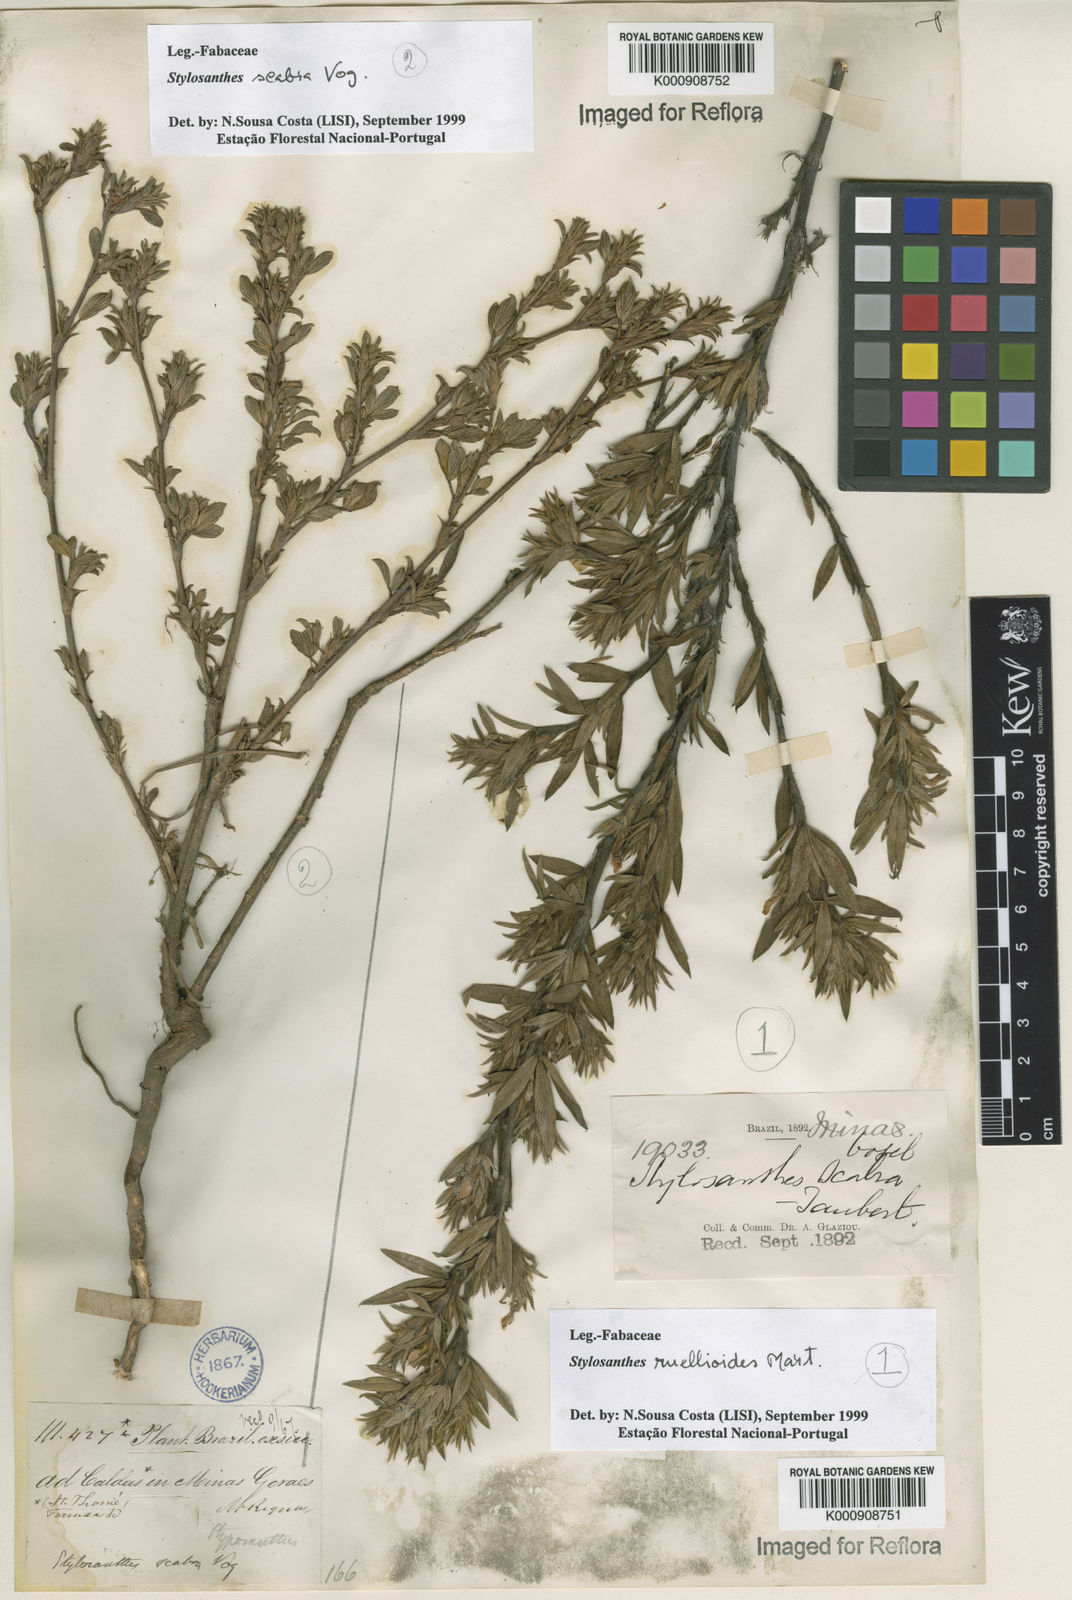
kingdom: Plantae
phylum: Tracheophyta
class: Magnoliopsida
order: Fabales
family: Fabaceae
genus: Stylosanthes
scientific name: Stylosanthes scabra
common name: Pencilflower
